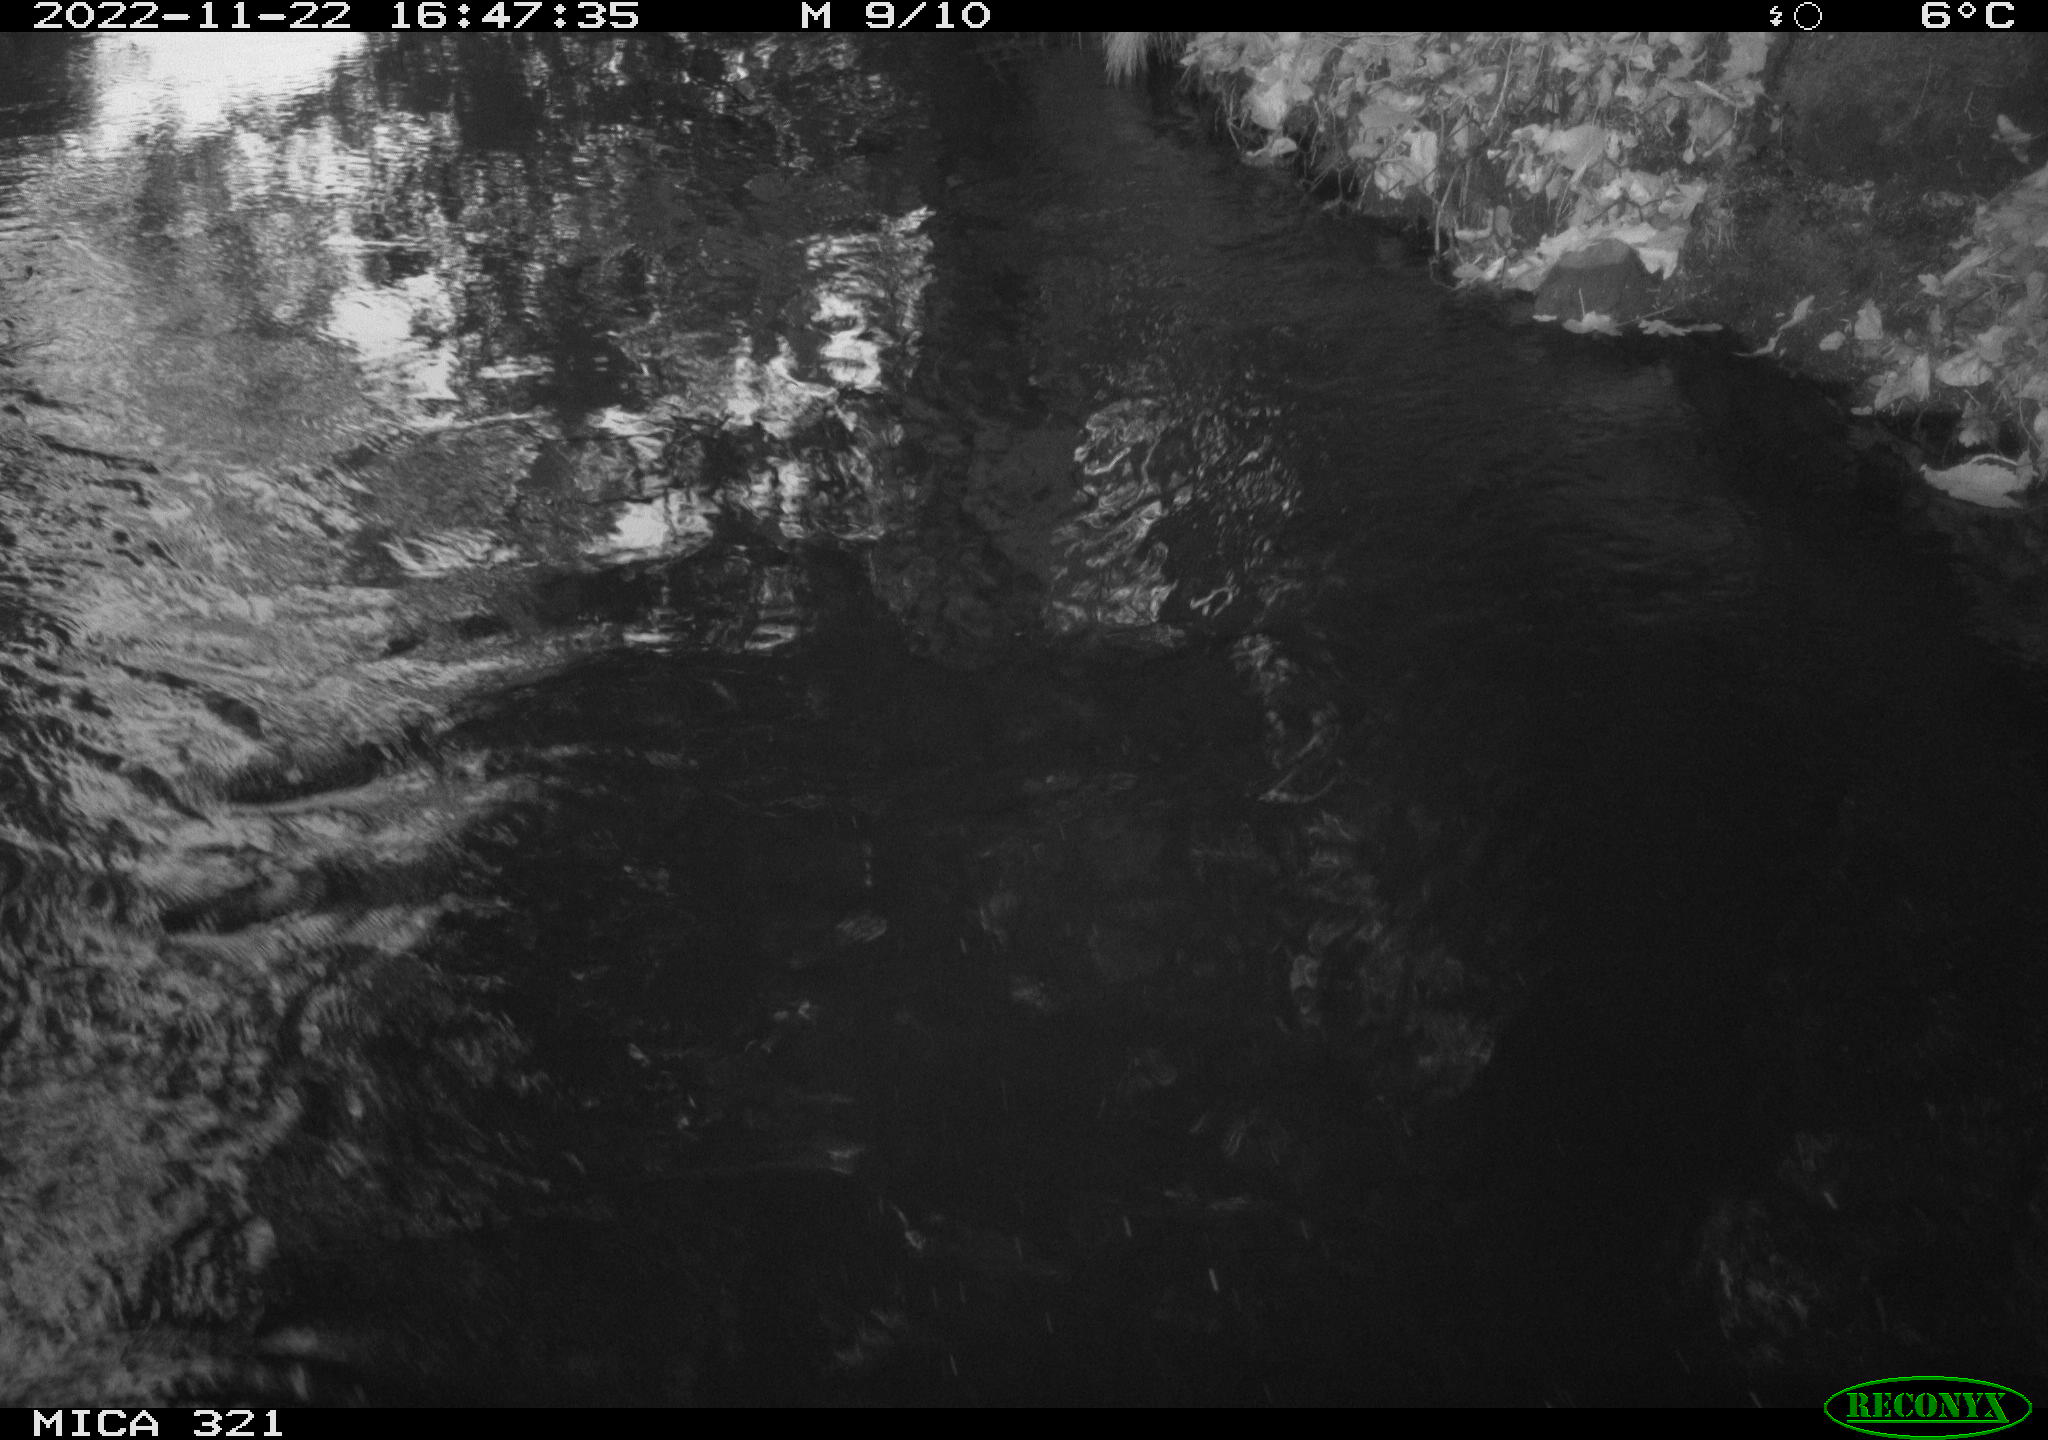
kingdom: Animalia
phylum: Chordata
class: Aves
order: Gruiformes
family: Rallidae
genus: Fulica
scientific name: Fulica atra
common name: Eurasian coot
